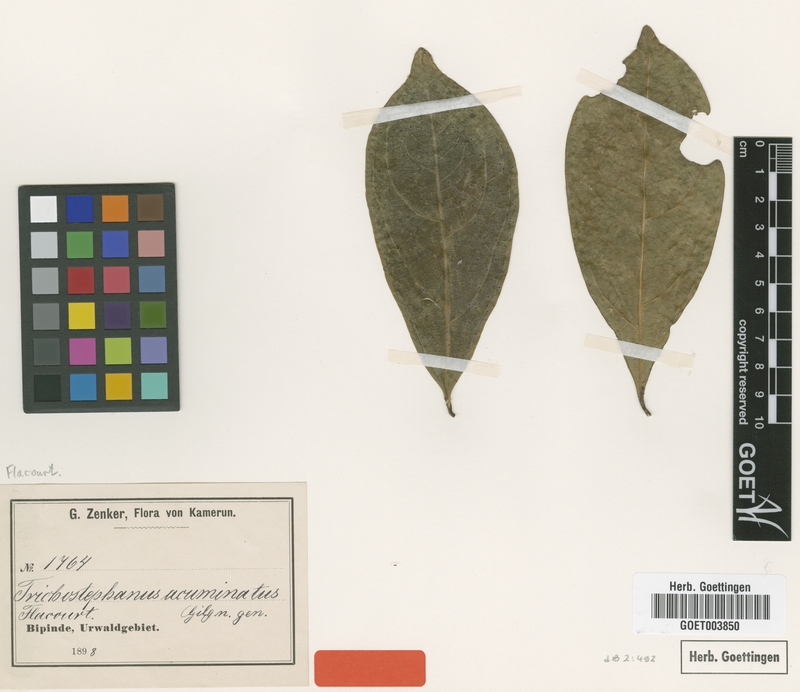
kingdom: Plantae
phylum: Tracheophyta
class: Magnoliopsida
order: Malpighiales
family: Salicaceae
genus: Trichostephanus
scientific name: Trichostephanus acuminatus
